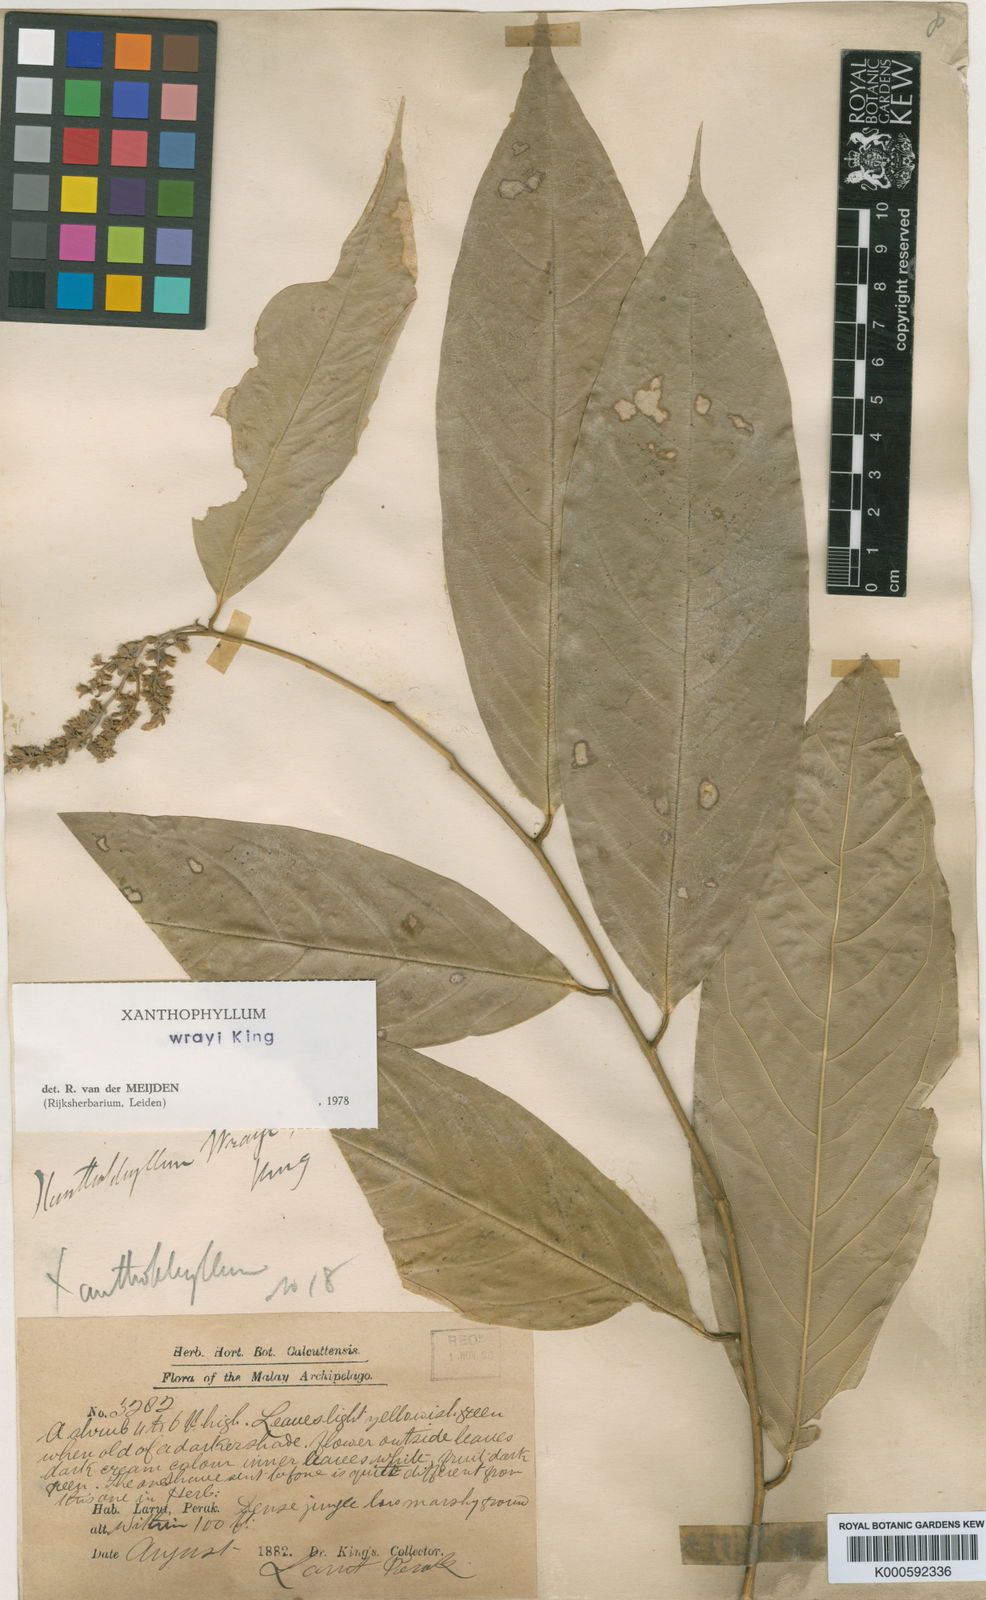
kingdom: Plantae
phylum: Tracheophyta
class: Magnoliopsida
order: Fabales
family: Polygalaceae
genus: Xanthophyllum
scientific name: Xanthophyllum wrayi
